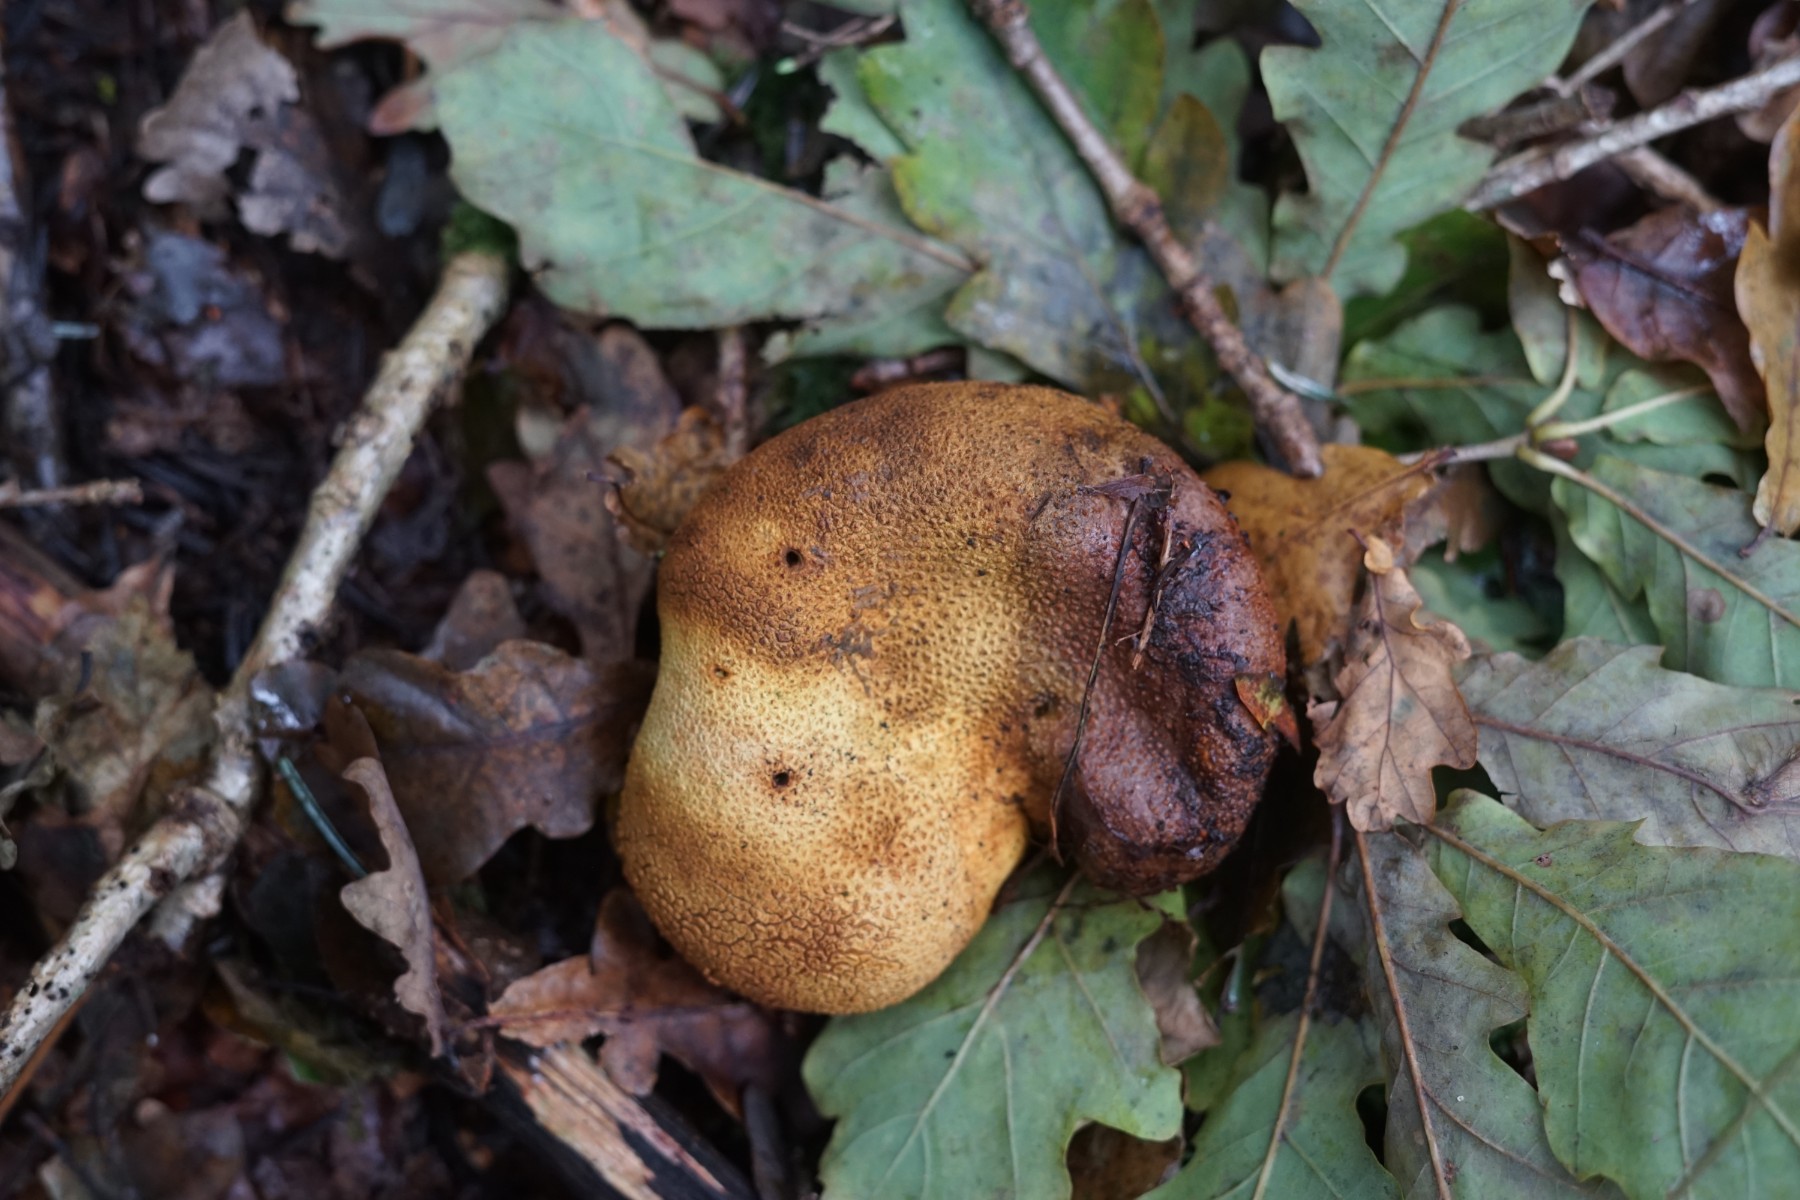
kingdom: Fungi
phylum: Basidiomycota
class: Agaricomycetes
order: Boletales
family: Sclerodermataceae
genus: Scleroderma
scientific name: Scleroderma citrinum
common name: almindelig bruskbold
